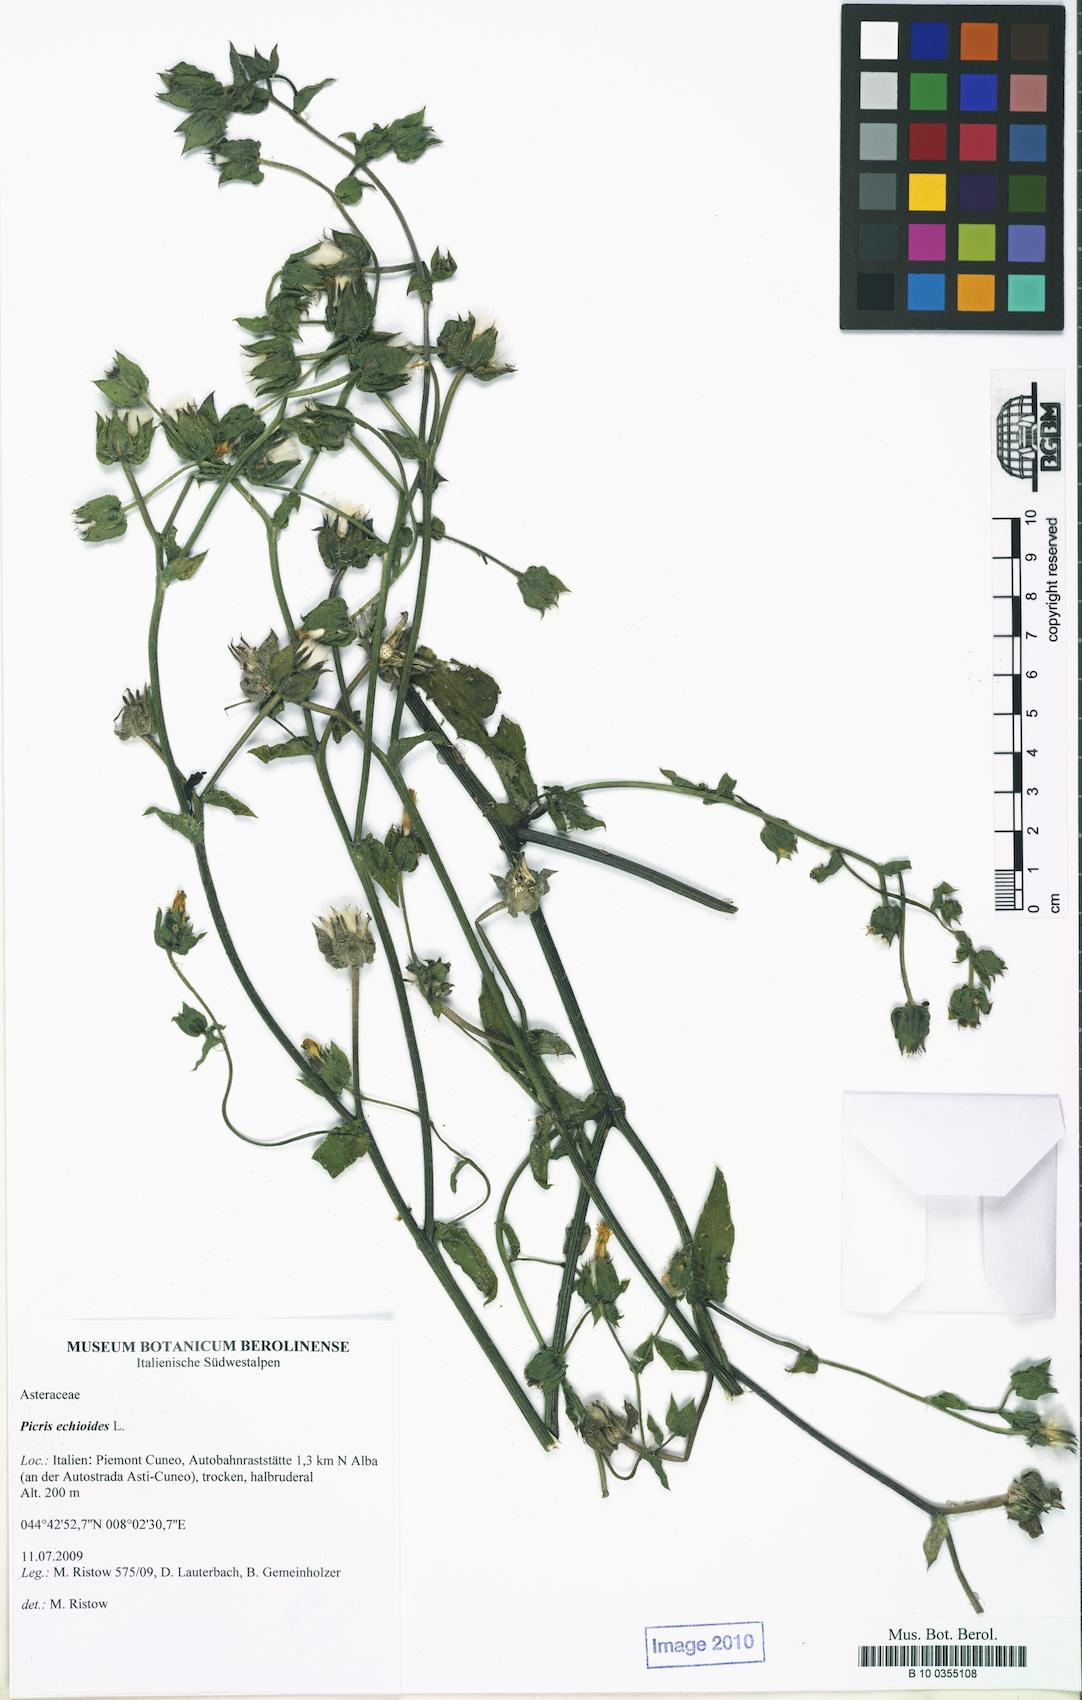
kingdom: Plantae
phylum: Tracheophyta
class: Magnoliopsida
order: Asterales
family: Asteraceae
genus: Helminthotheca
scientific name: Helminthotheca echioides
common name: Ox-tongue
